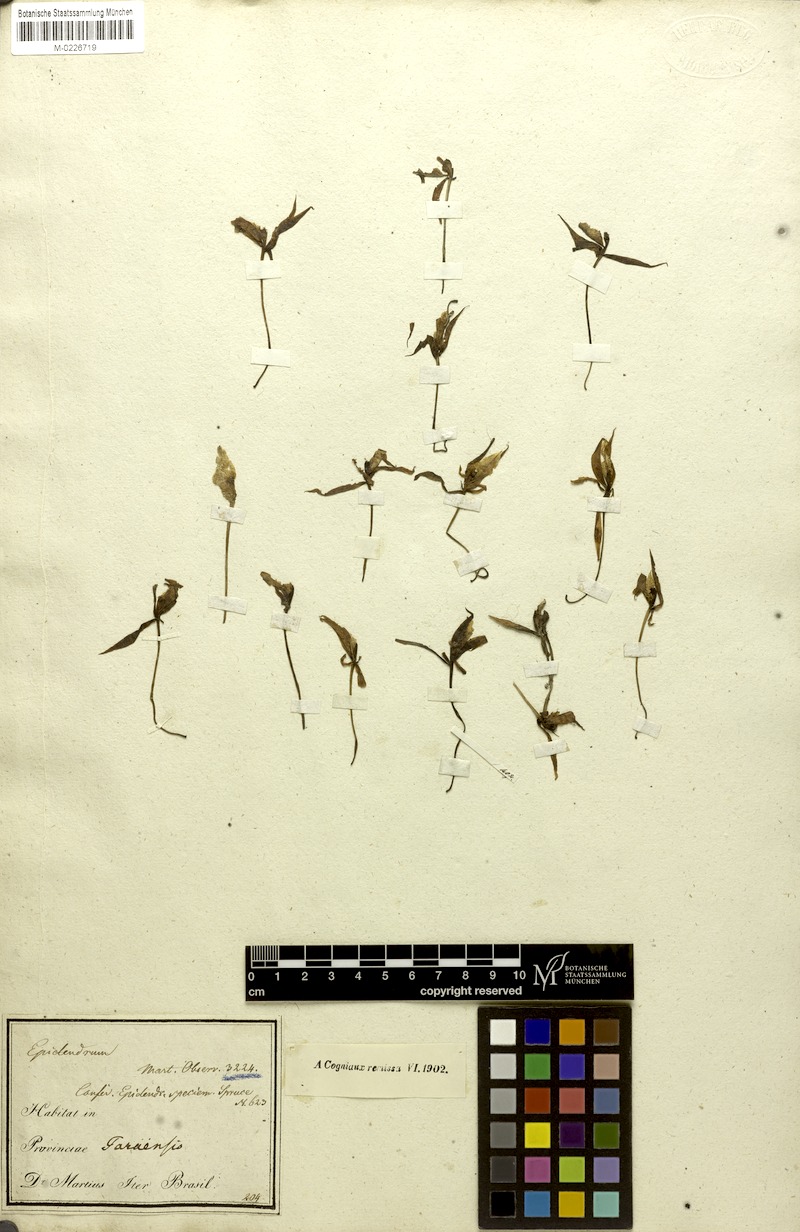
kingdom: Plantae
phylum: Tracheophyta
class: Liliopsida
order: Asparagales
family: Orchidaceae
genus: Brassavola
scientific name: Brassavola martiana
